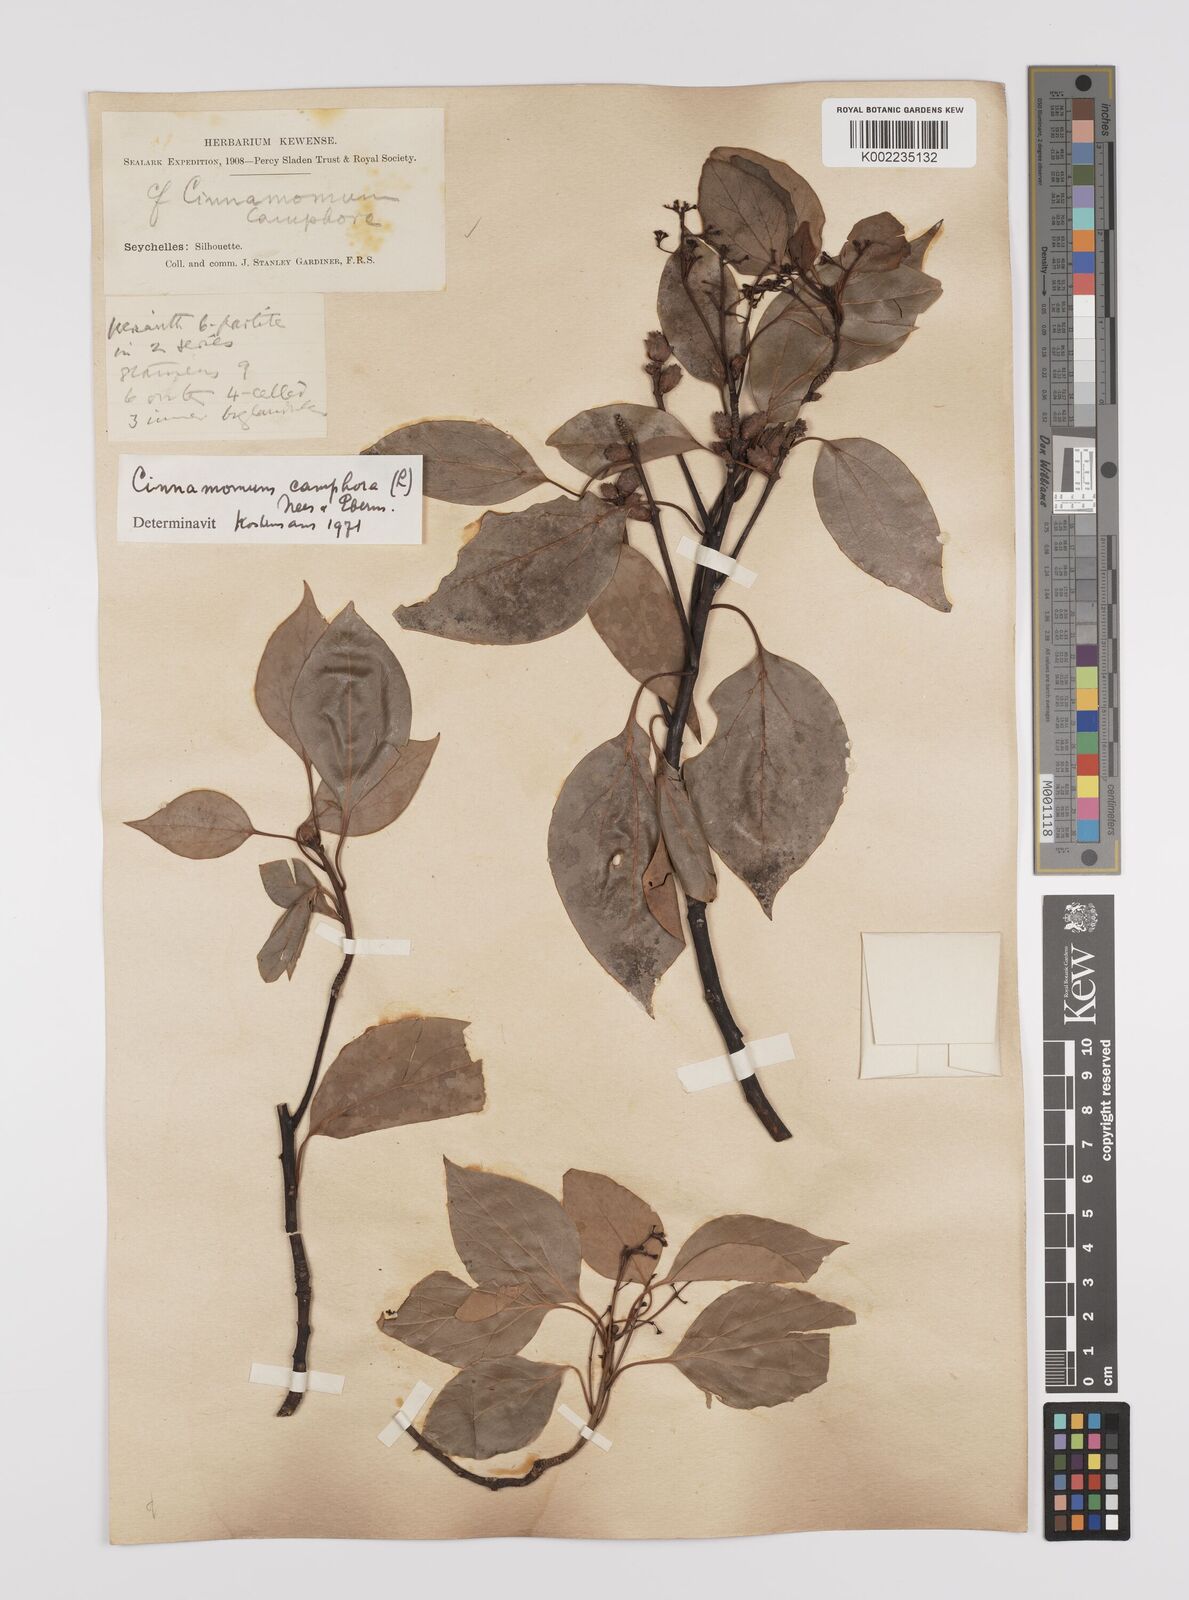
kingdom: Plantae
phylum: Tracheophyta
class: Magnoliopsida
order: Laurales
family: Lauraceae
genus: Cinnamomum
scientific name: Cinnamomum camphora
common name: Camphortree
